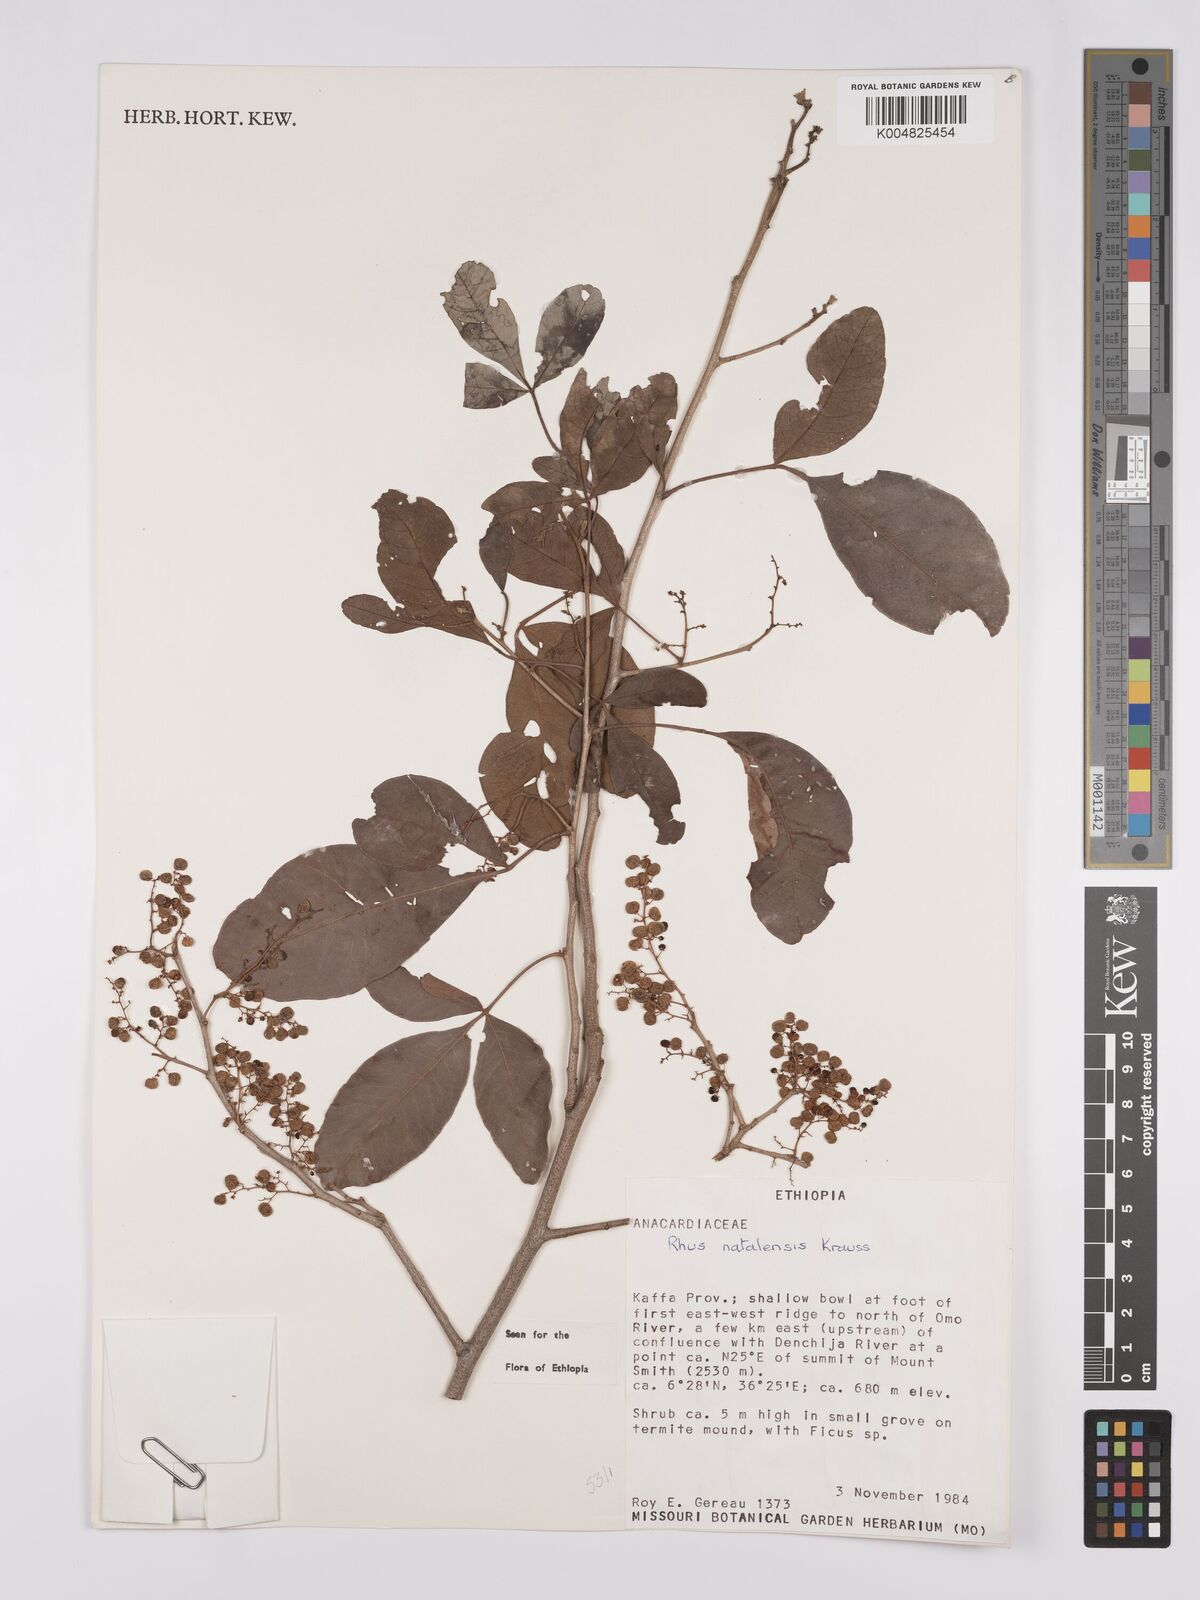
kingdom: Plantae
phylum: Tracheophyta
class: Magnoliopsida
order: Sapindales
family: Anacardiaceae
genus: Searsia
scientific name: Searsia natalensis
